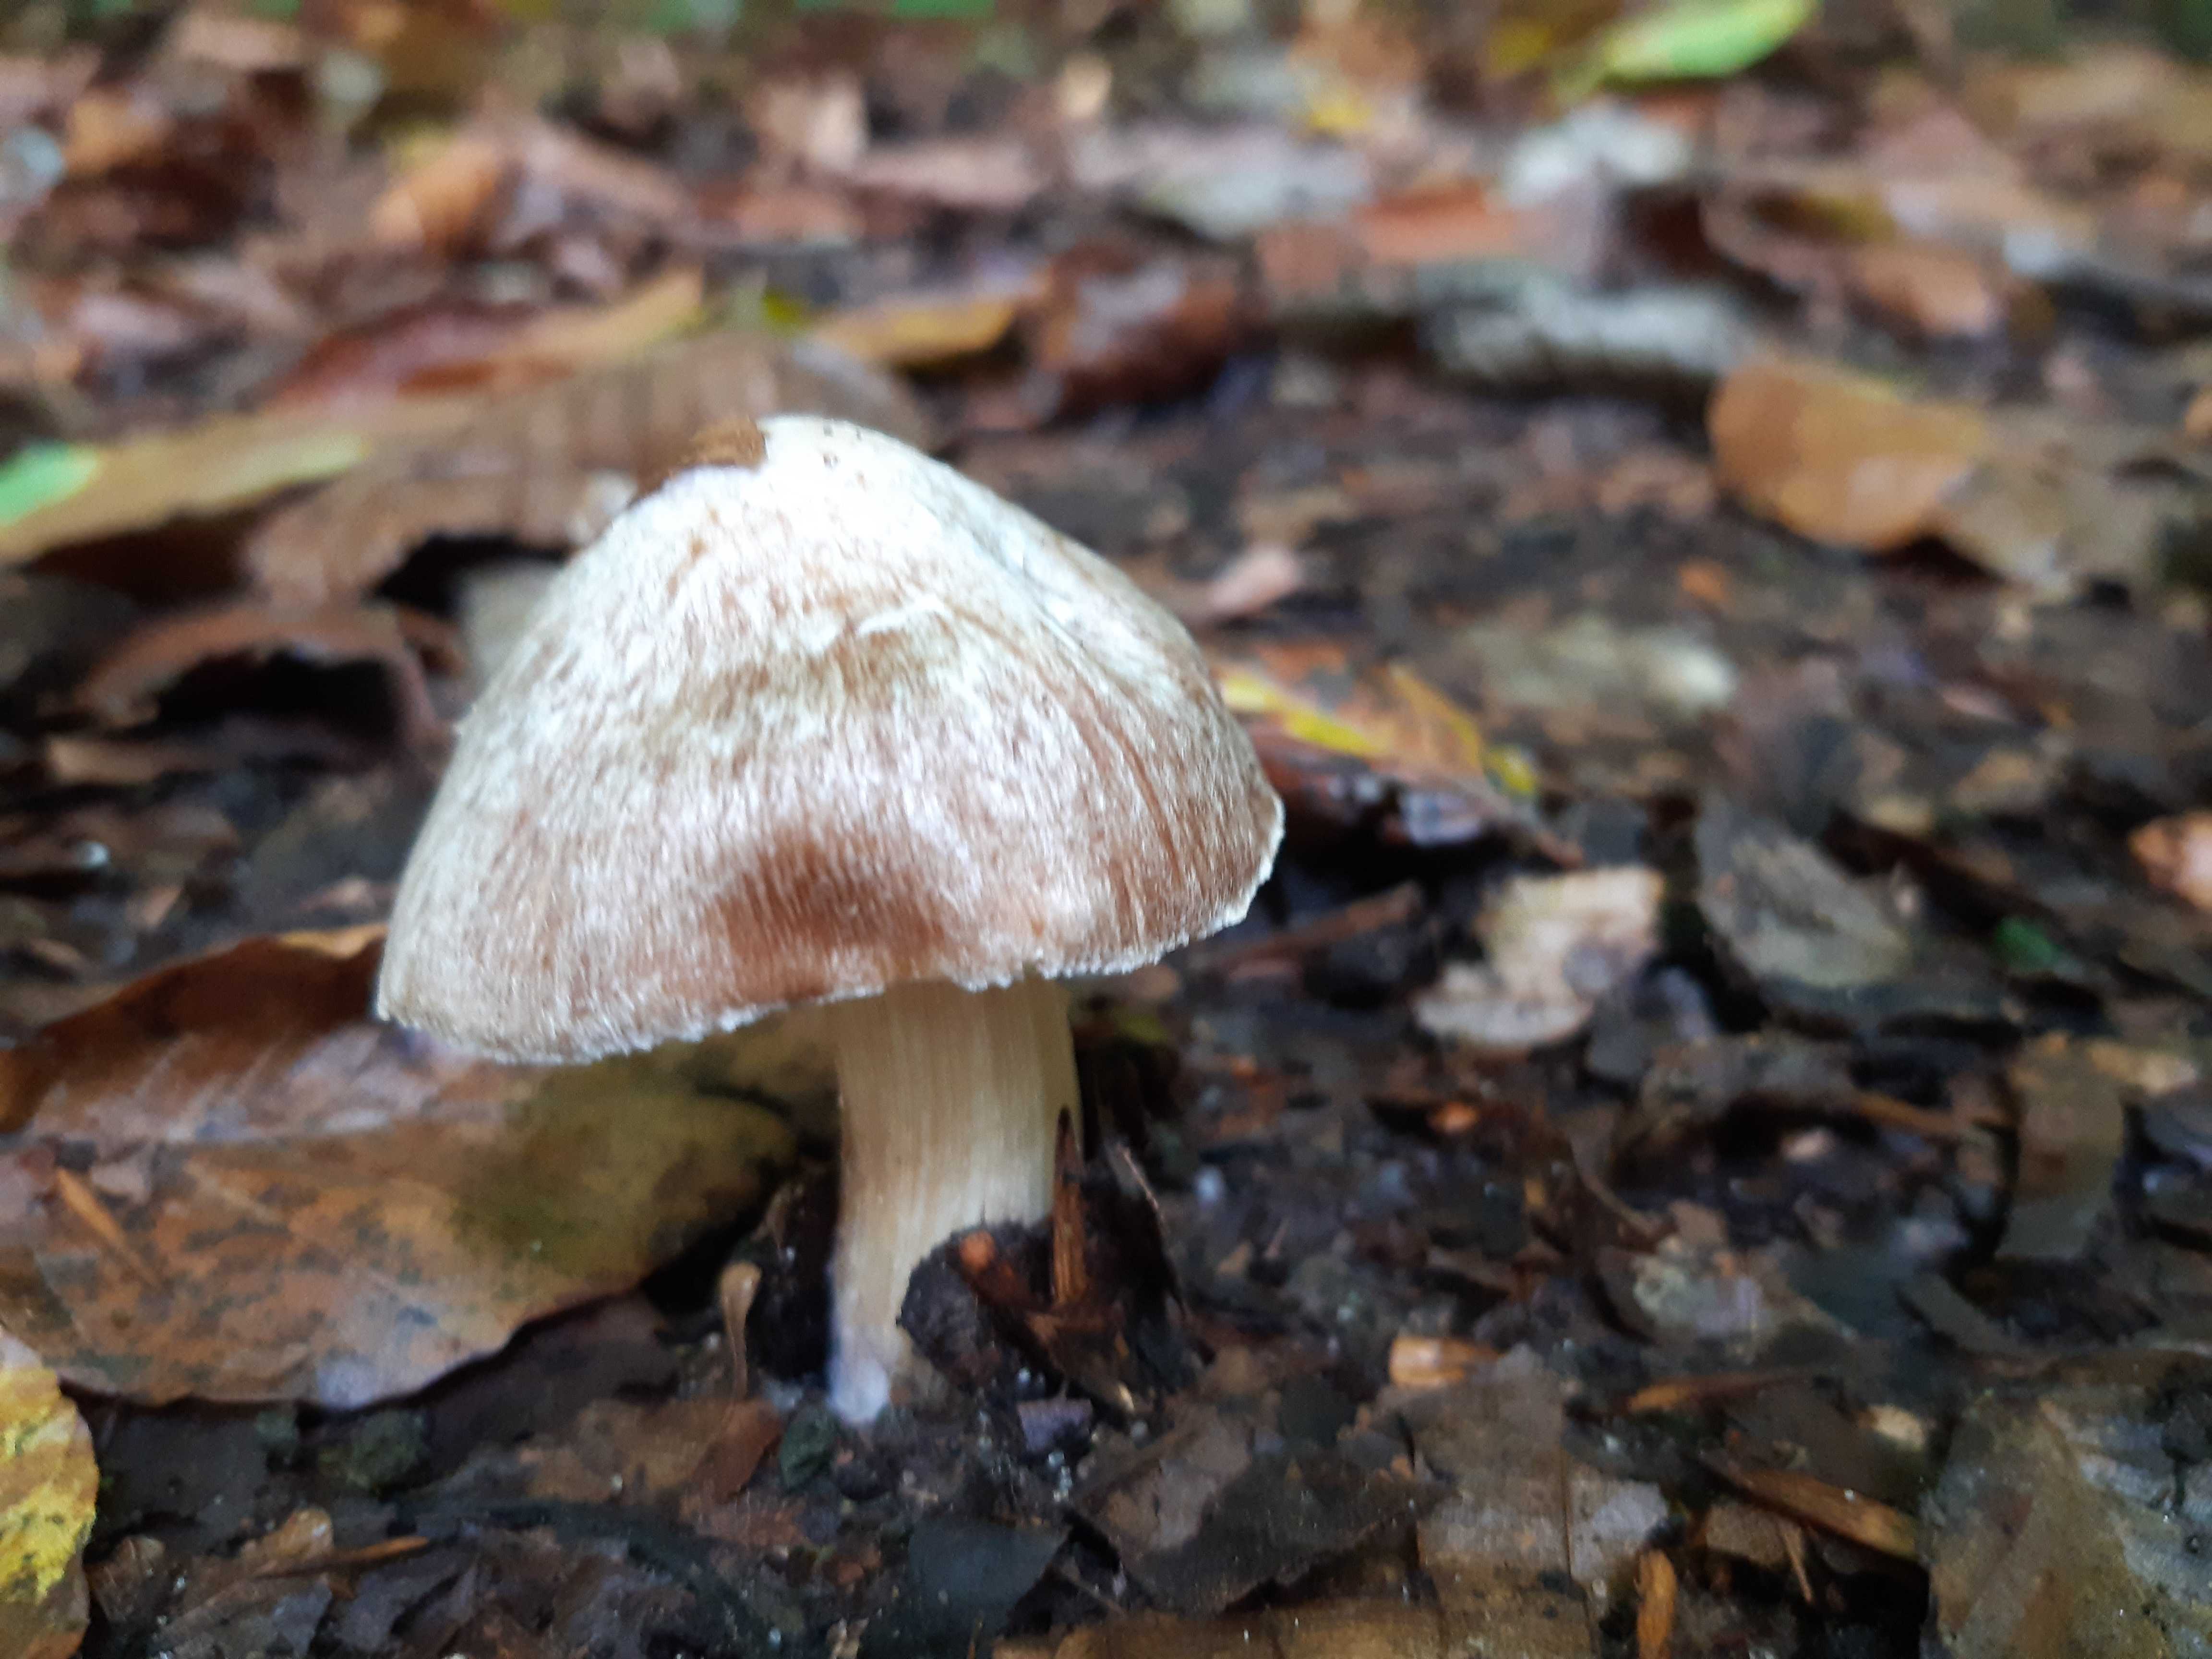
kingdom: Fungi
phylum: Basidiomycota
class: Agaricomycetes
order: Agaricales
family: Inocybaceae
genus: Inosperma
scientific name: Inosperma
